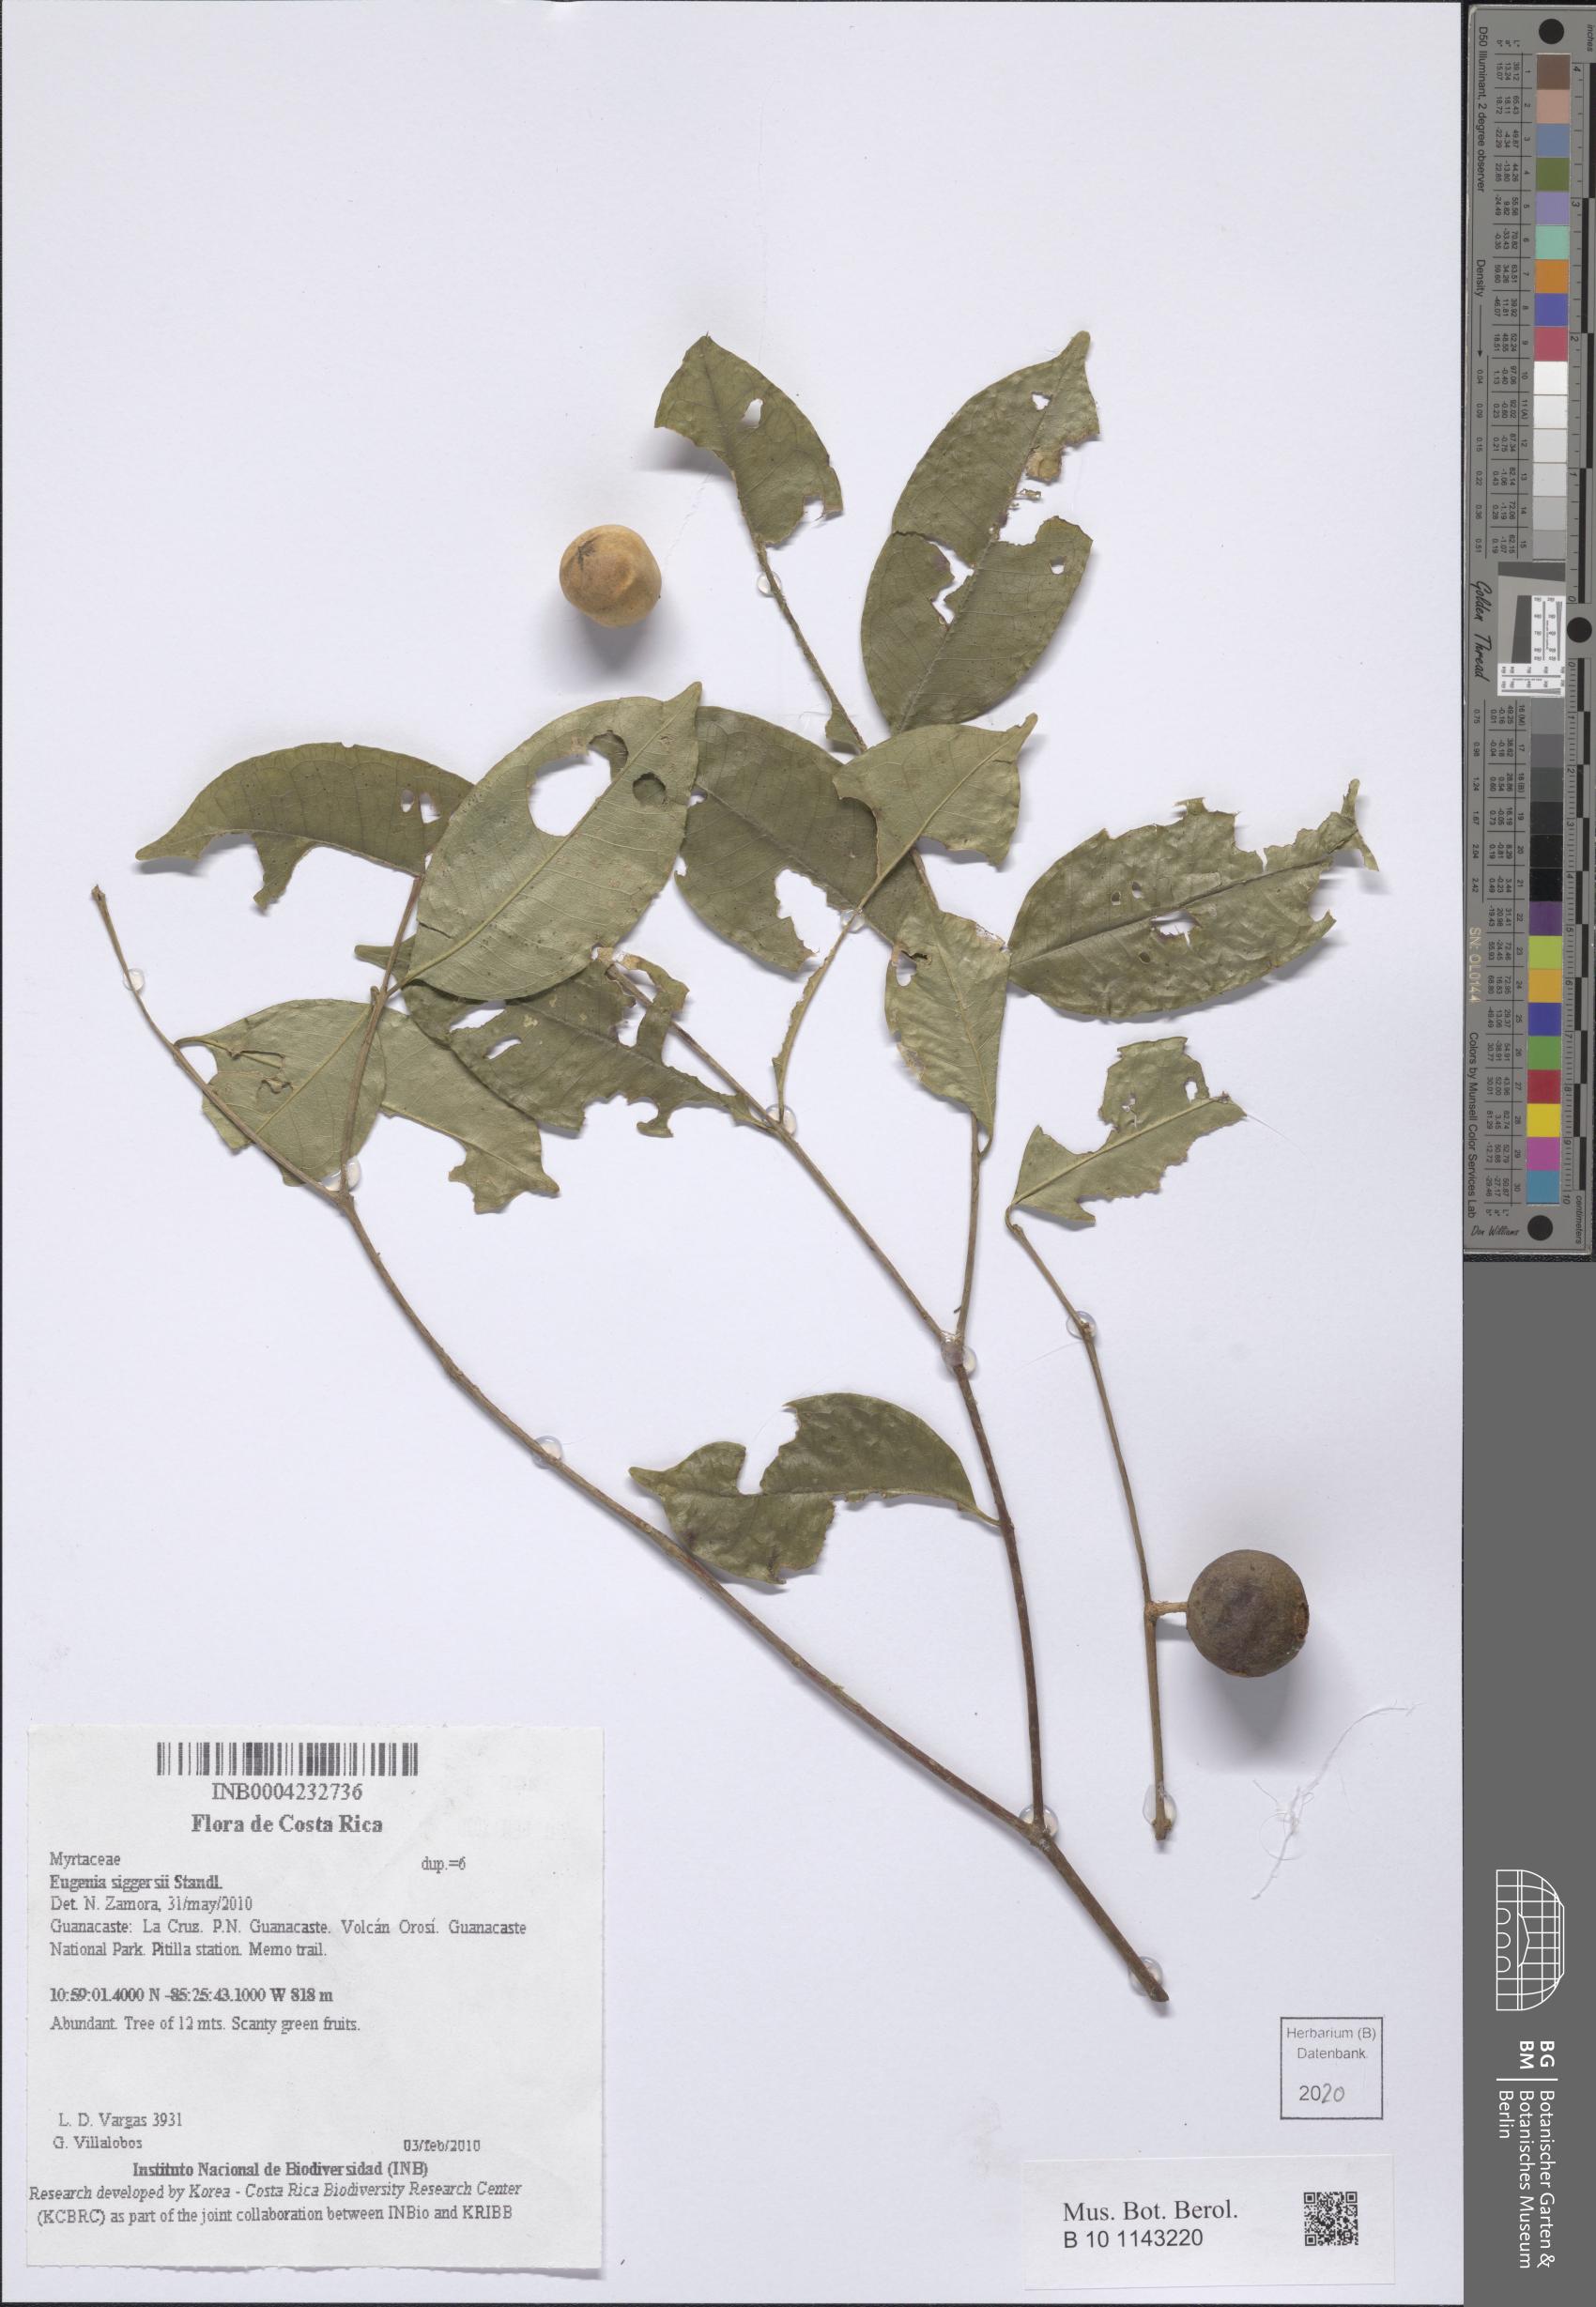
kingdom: Plantae
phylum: Tracheophyta
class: Magnoliopsida
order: Myrtales
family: Myrtaceae
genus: Eugenia
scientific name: Eugenia siggersii
